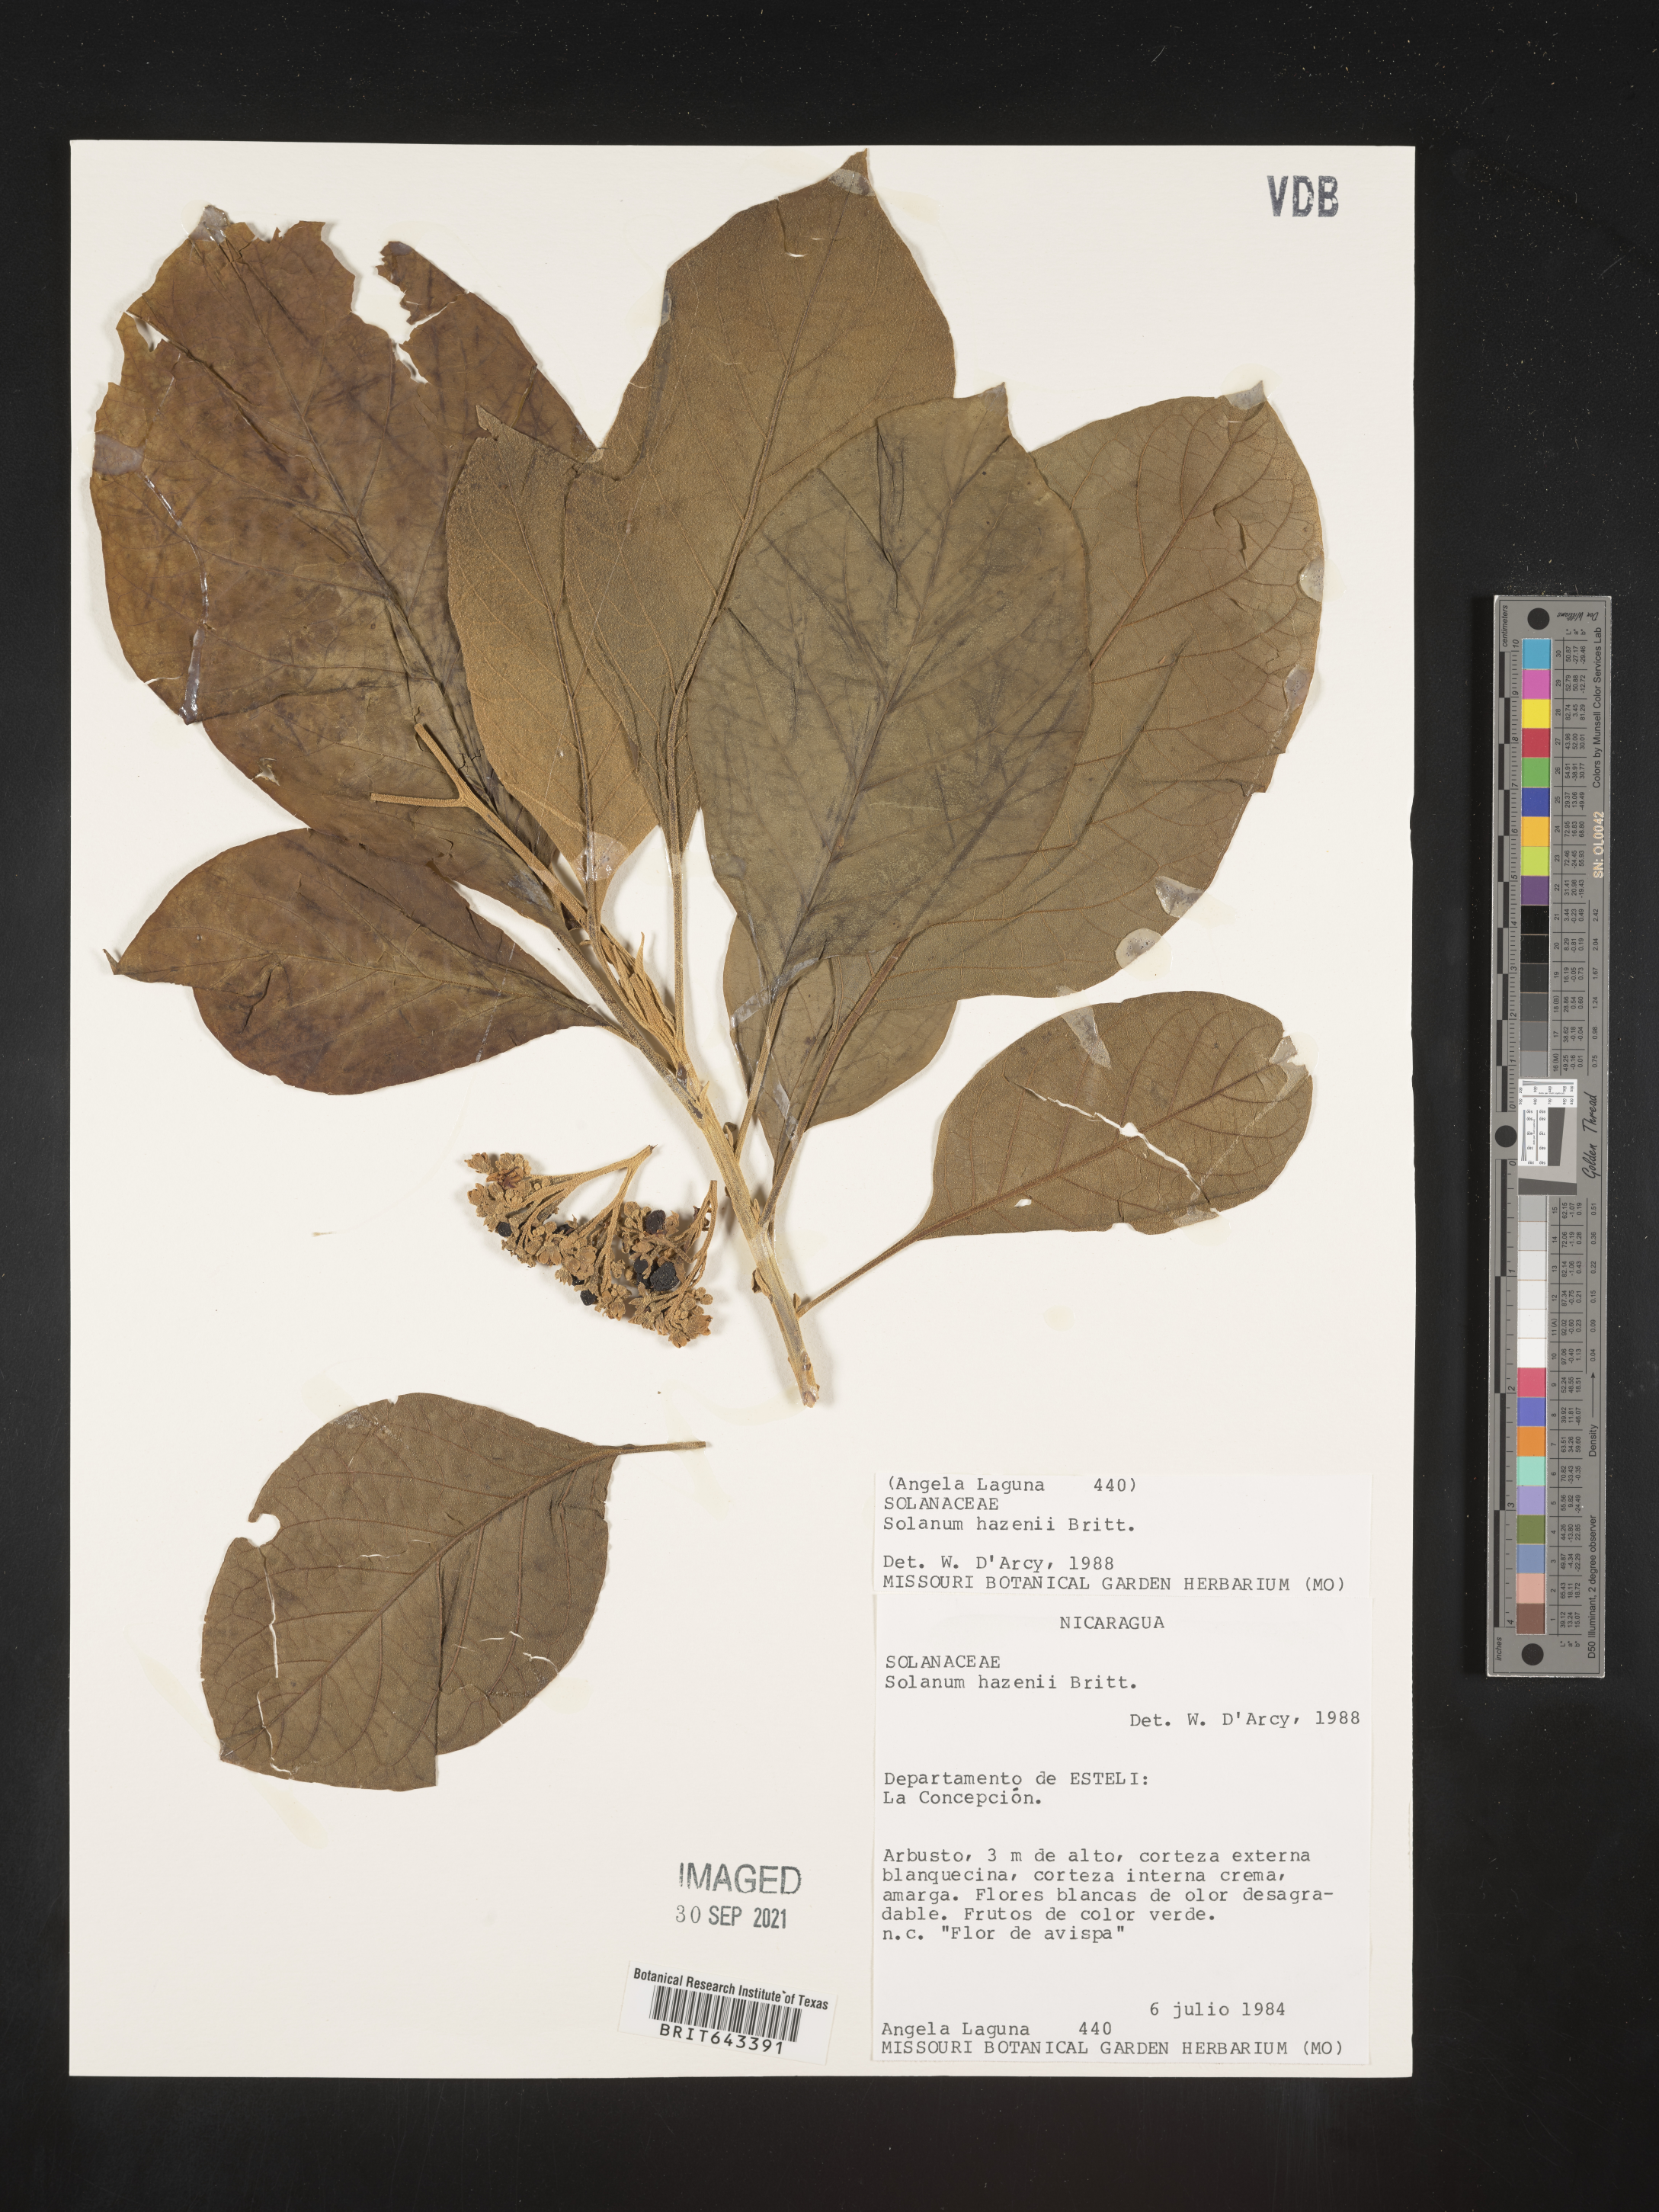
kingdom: Plantae
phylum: Tracheophyta
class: Magnoliopsida
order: Solanales
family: Solanaceae
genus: Solanum
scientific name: Solanum
